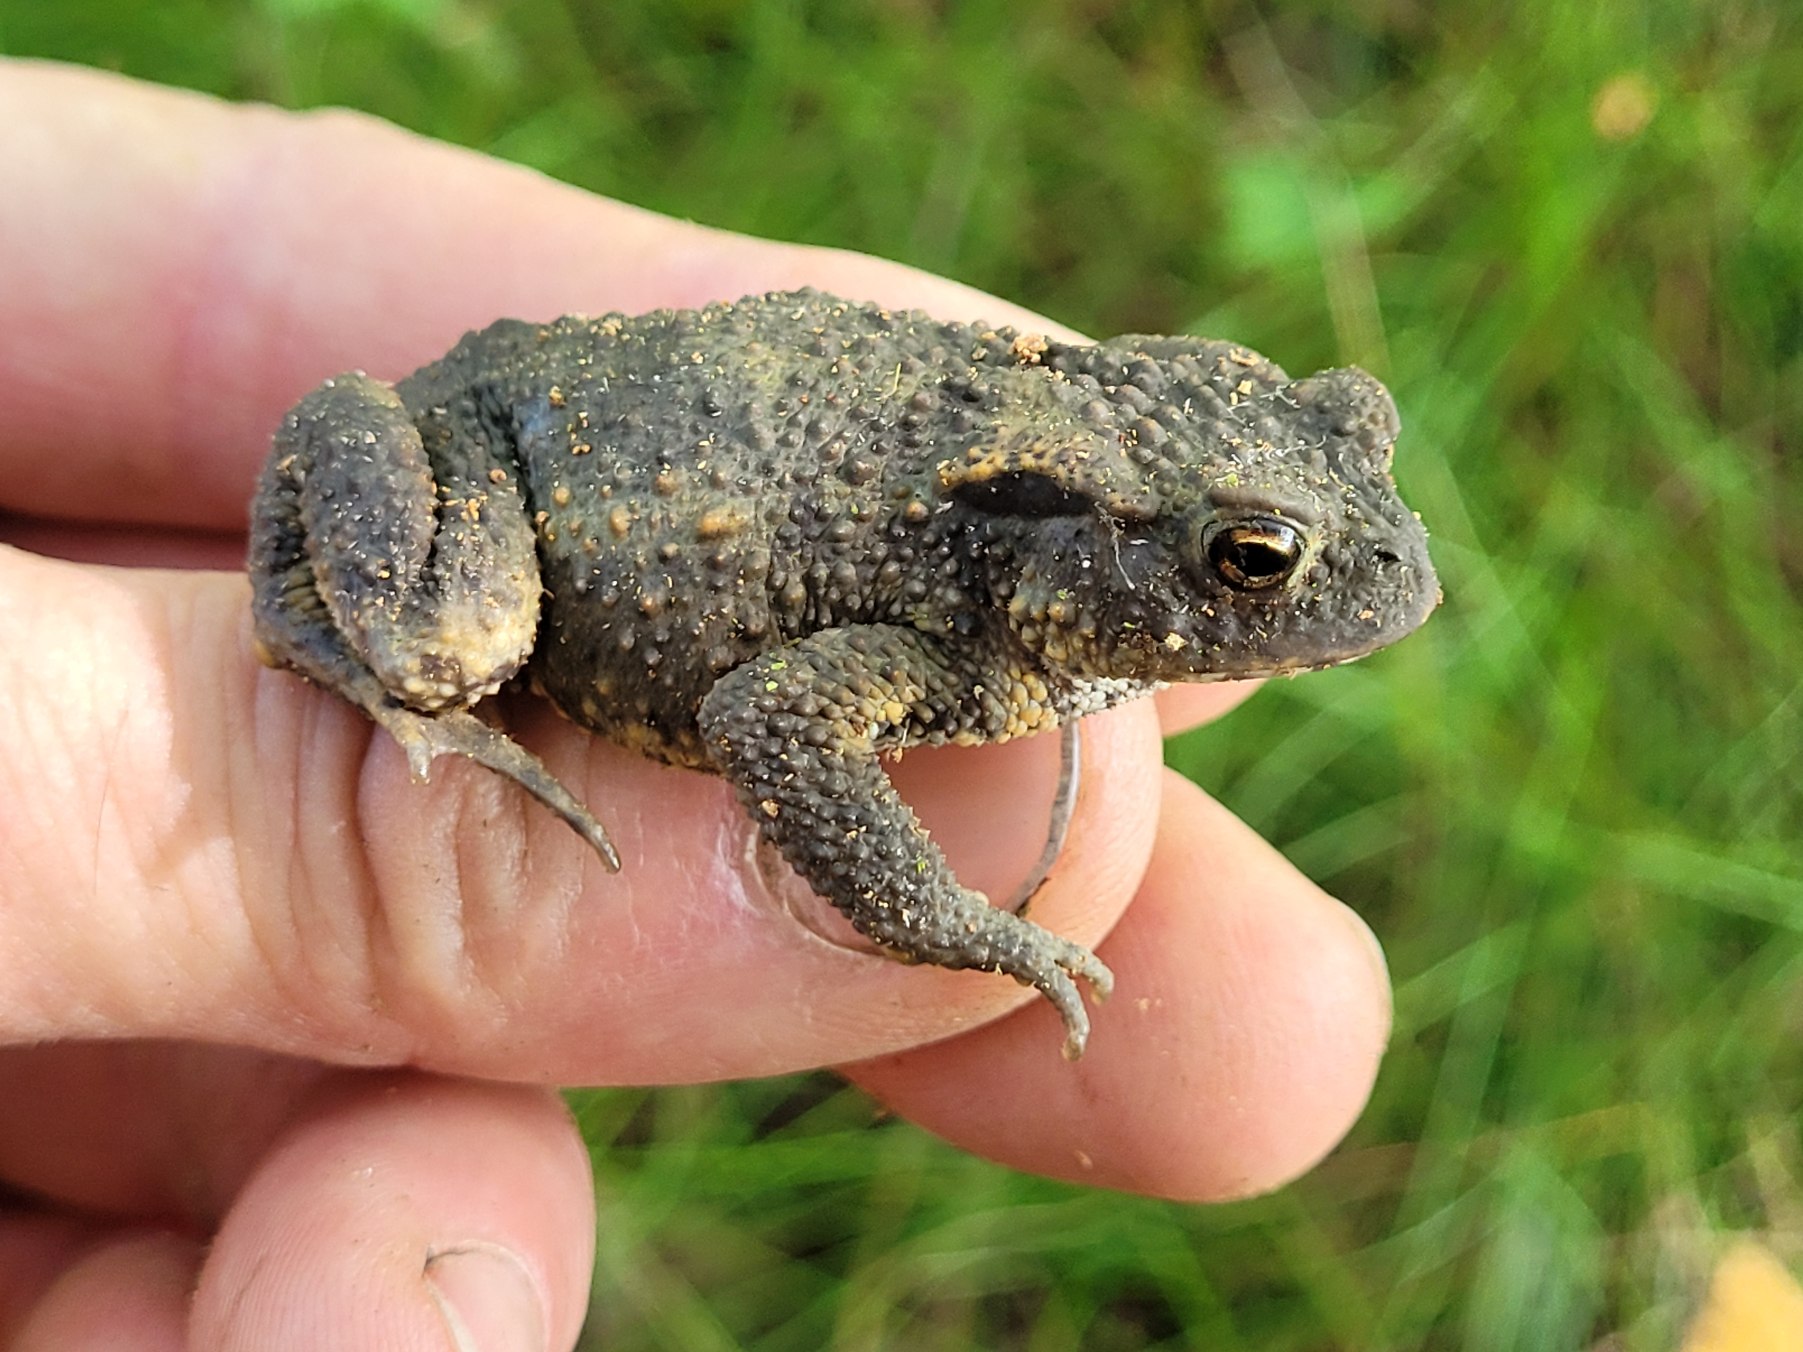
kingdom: Animalia
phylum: Chordata
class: Amphibia
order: Anura
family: Bufonidae
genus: Bufo
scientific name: Bufo bufo
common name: Skrubtudse
